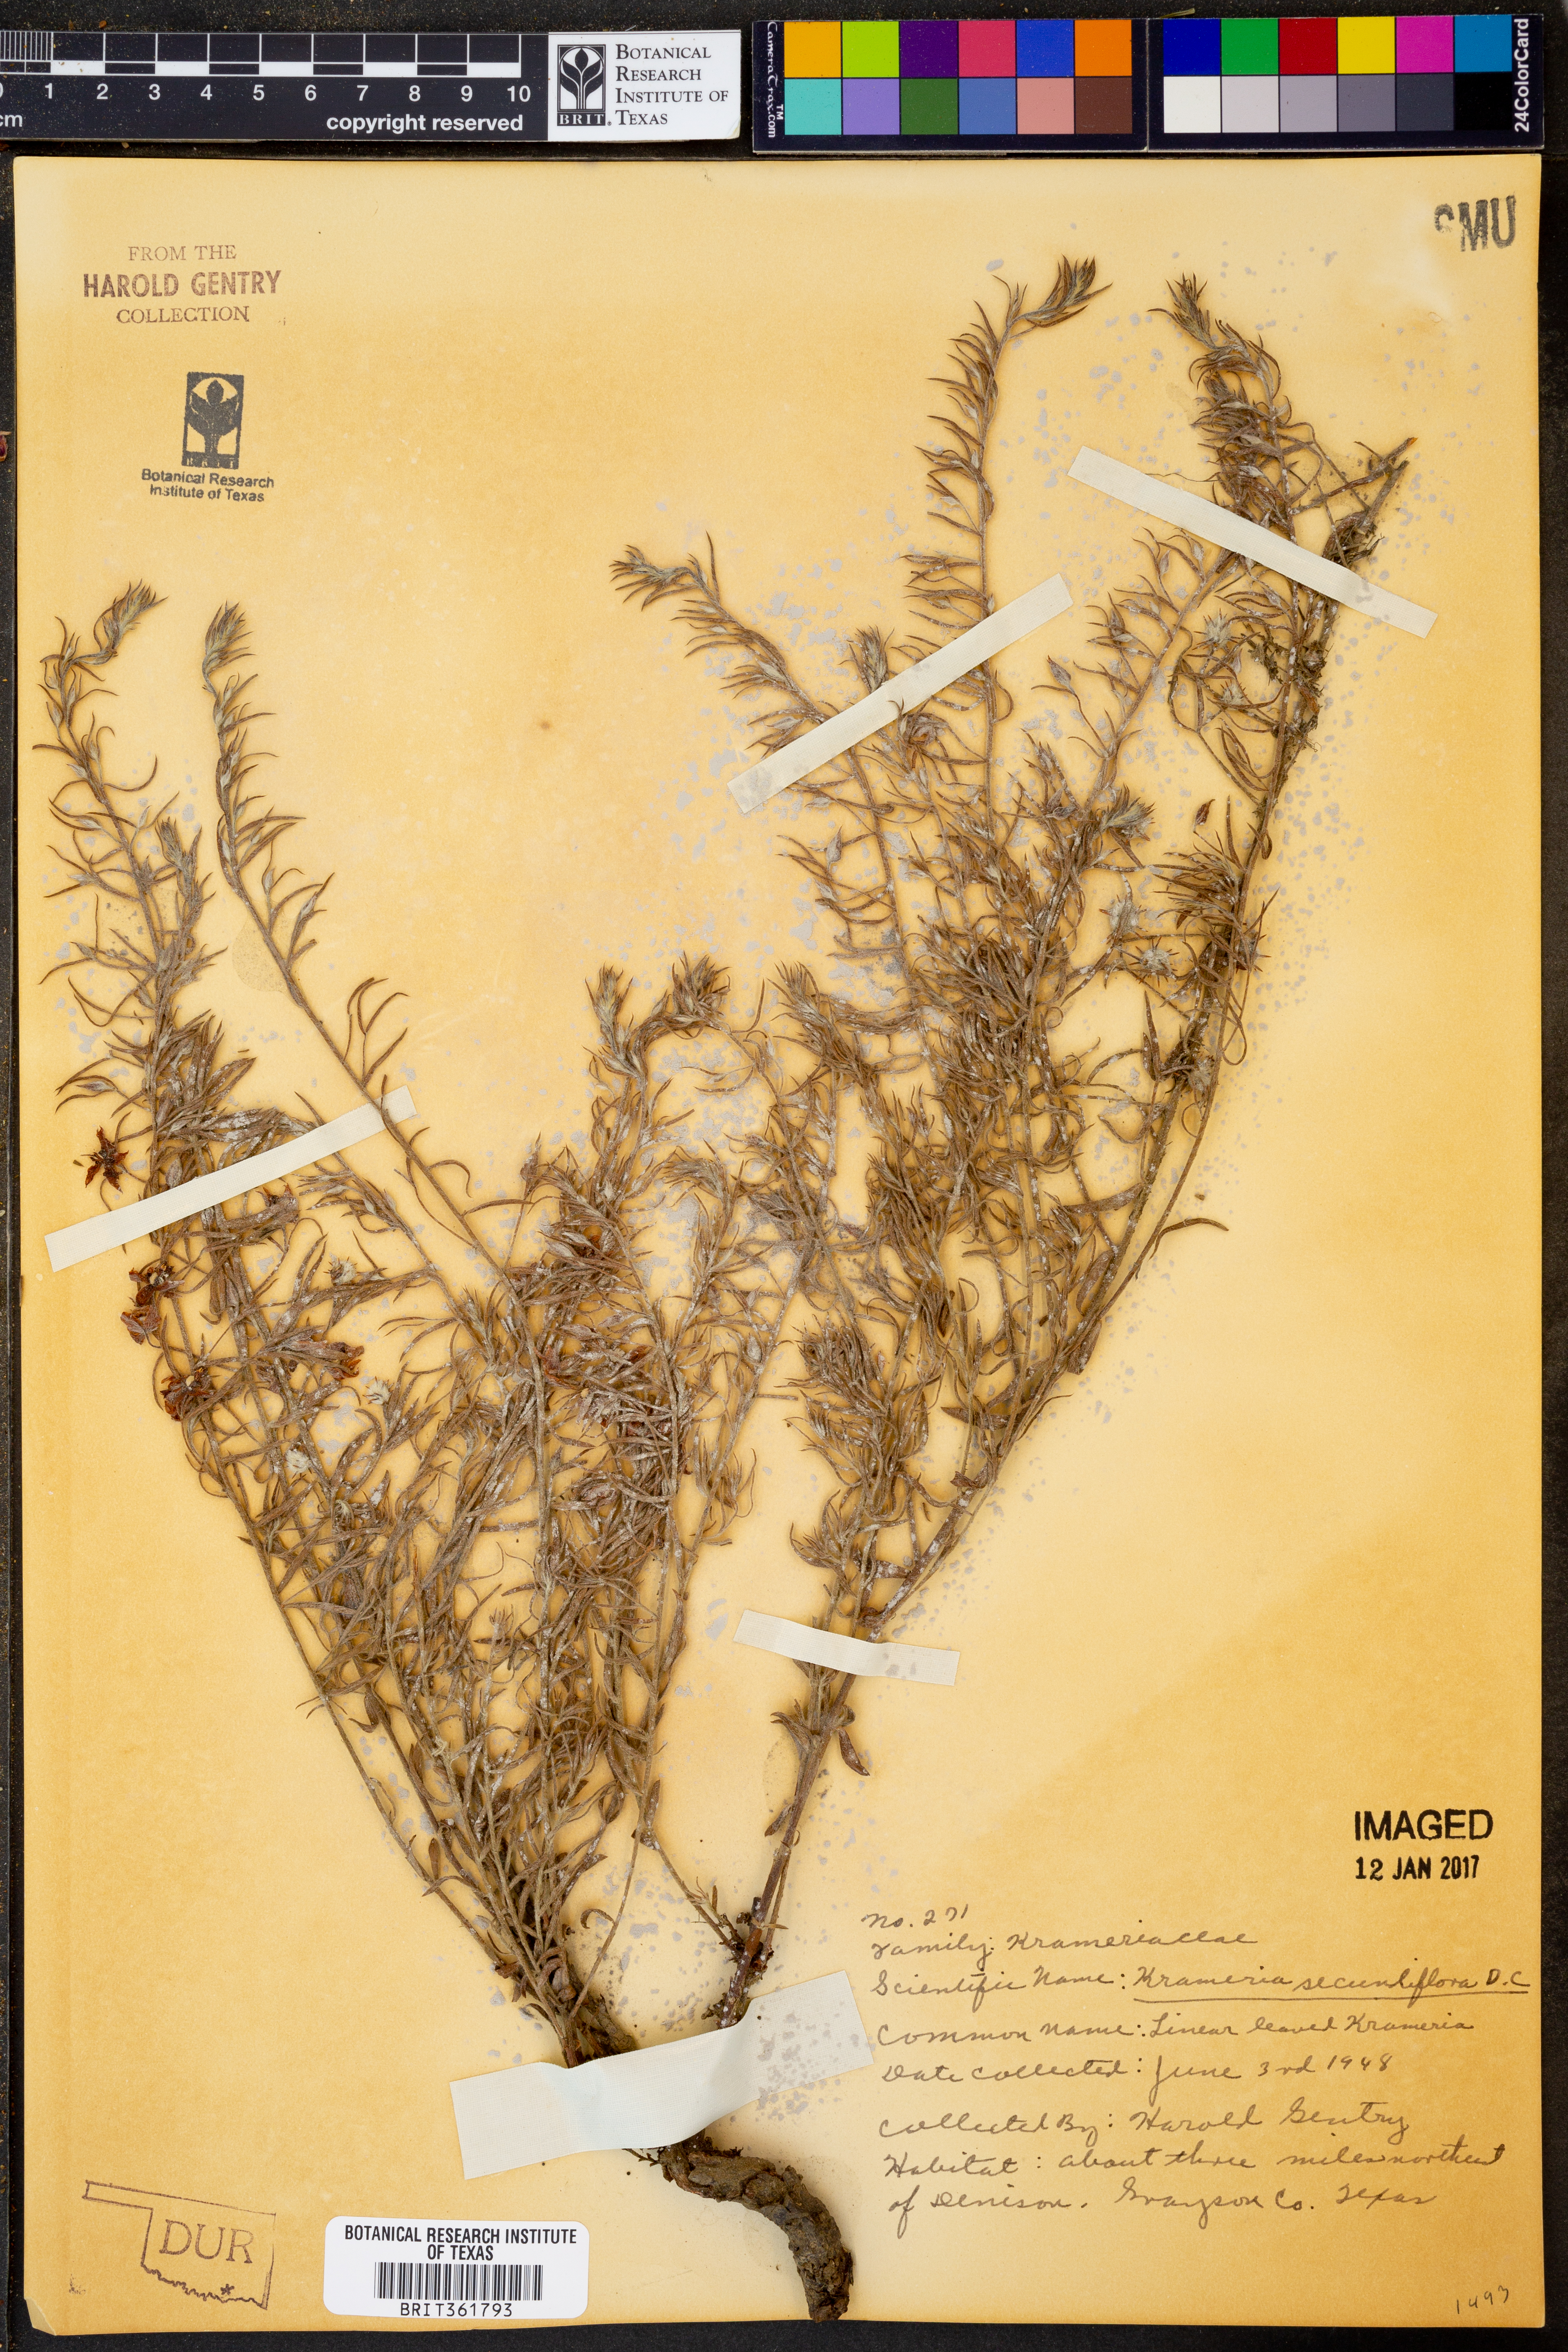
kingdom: Plantae
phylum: Tracheophyta
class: Magnoliopsida
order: Zygophyllales
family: Krameriaceae
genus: Krameria
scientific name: Krameria secundiflora
